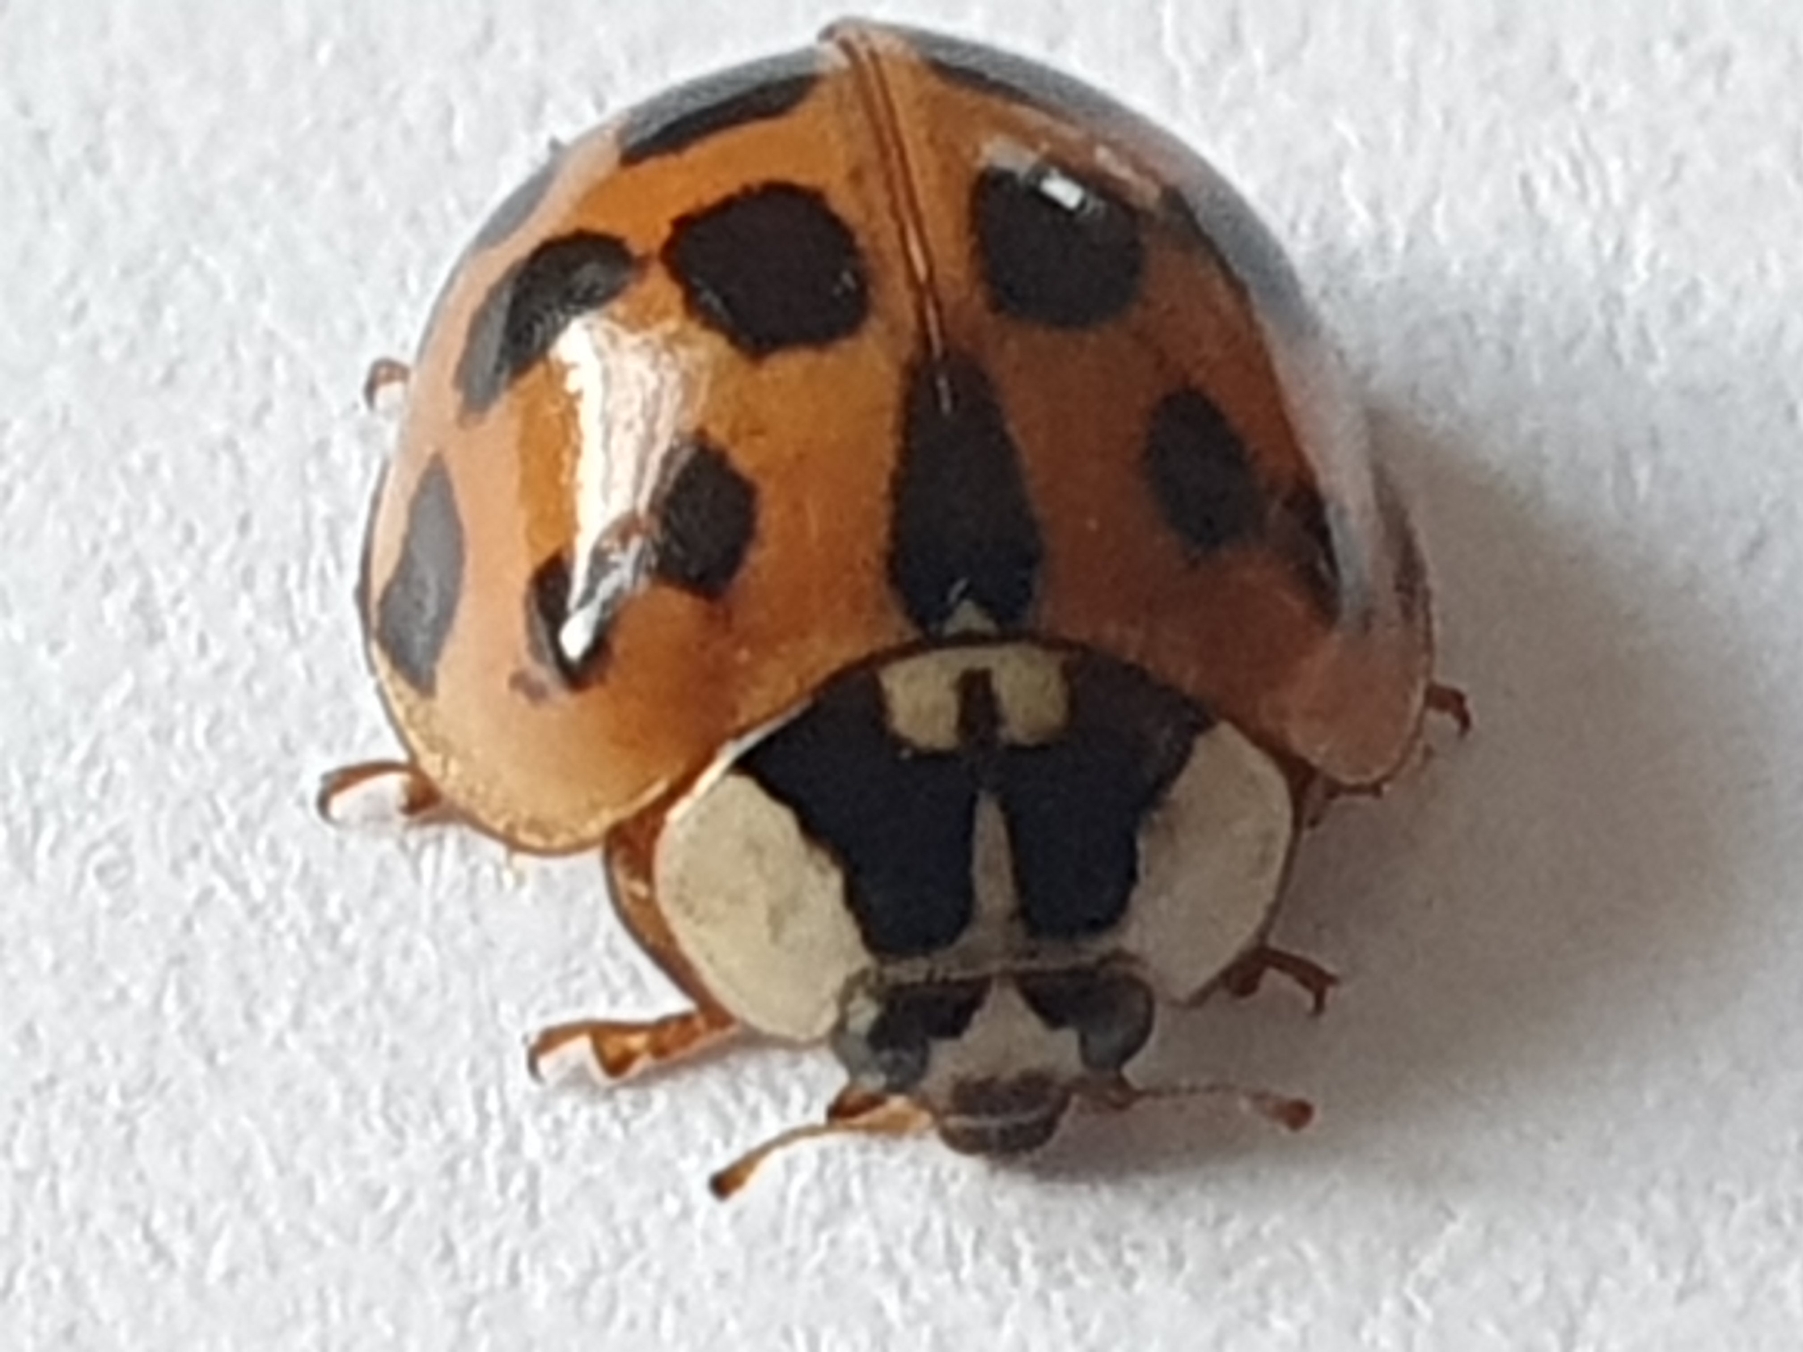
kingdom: Animalia
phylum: Arthropoda
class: Insecta
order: Coleoptera
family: Coccinellidae
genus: Harmonia
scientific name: Harmonia axyridis
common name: Harlekinmariehøne
